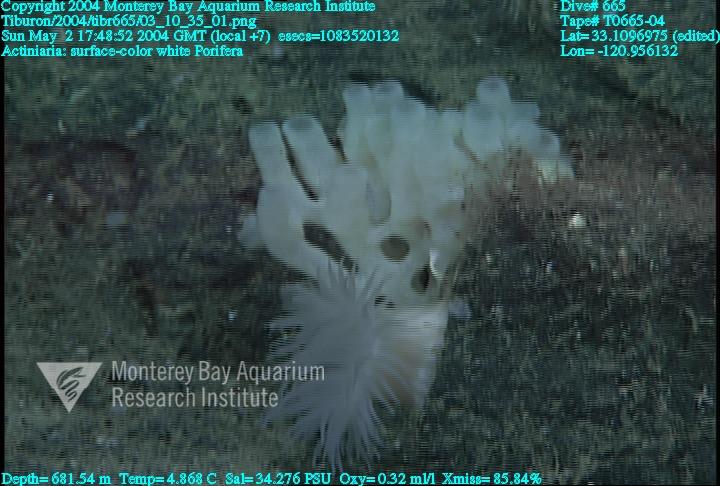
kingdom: Animalia
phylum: Porifera
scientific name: Porifera
